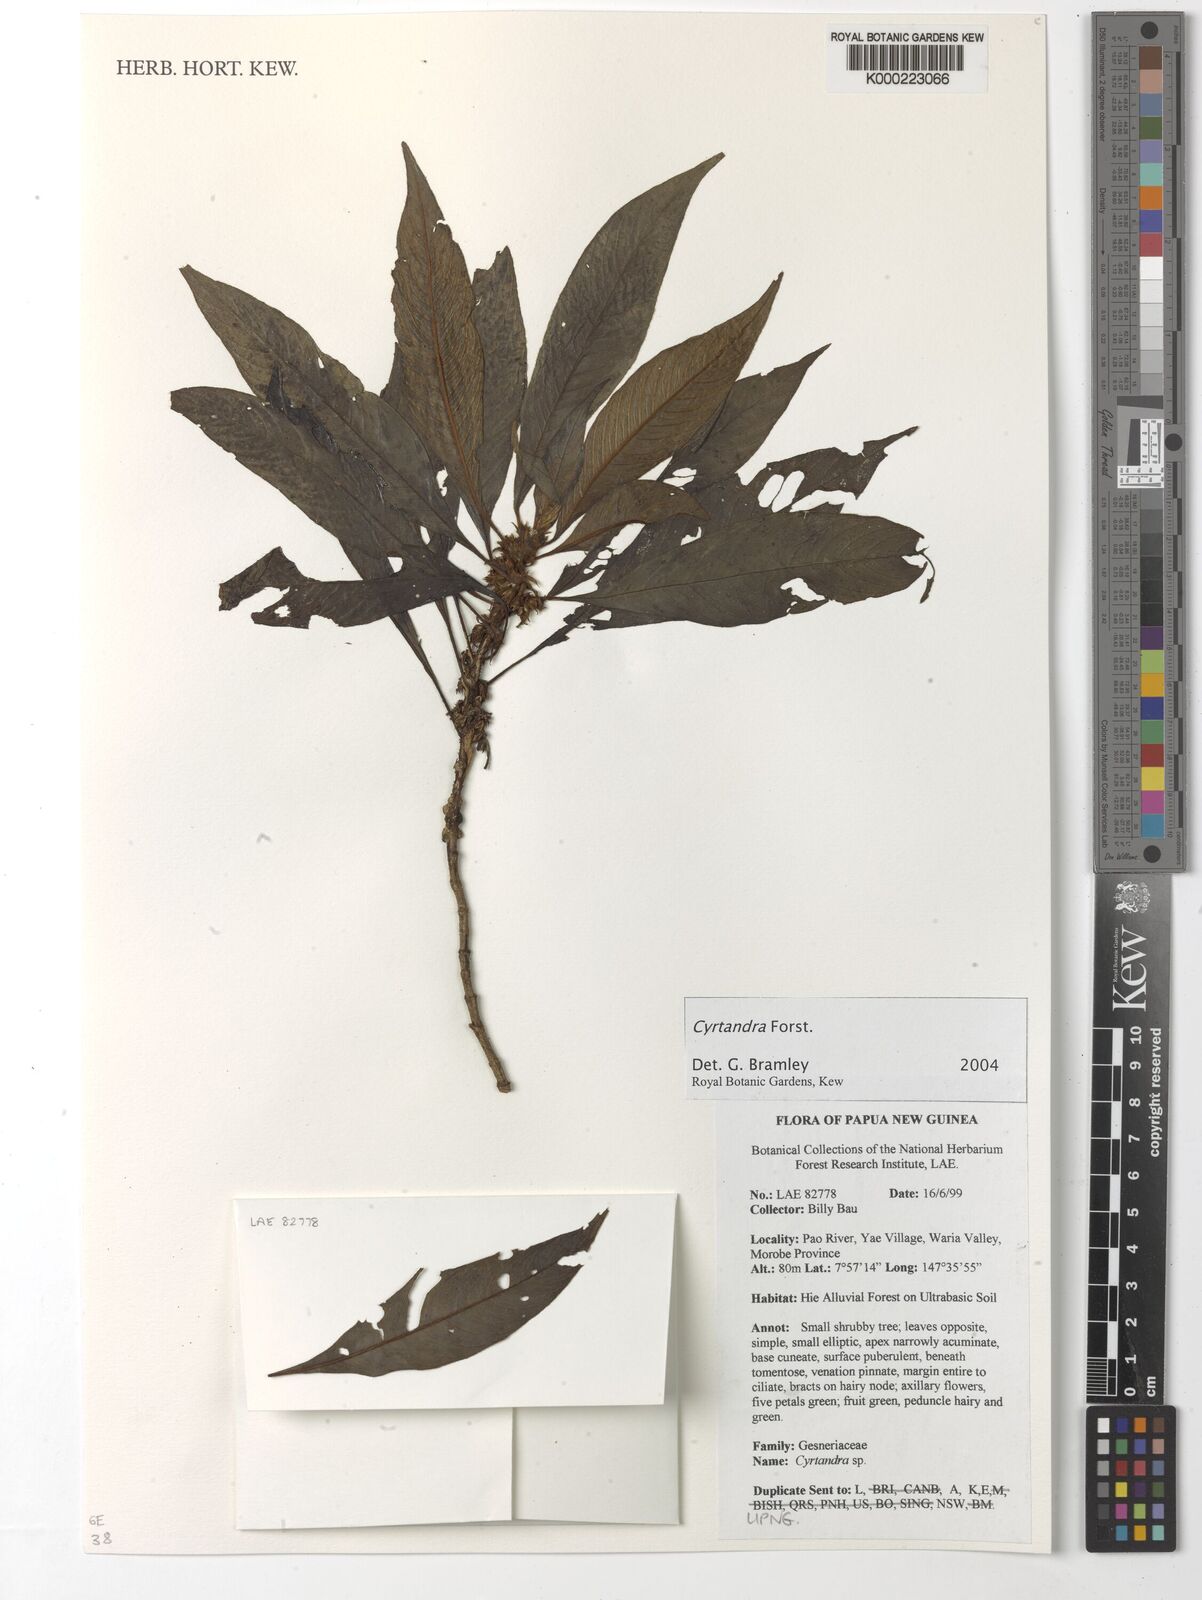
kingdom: Plantae
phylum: Tracheophyta
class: Magnoliopsida
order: Lamiales
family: Gesneriaceae
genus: Cyrtandra
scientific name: Cyrtandra
